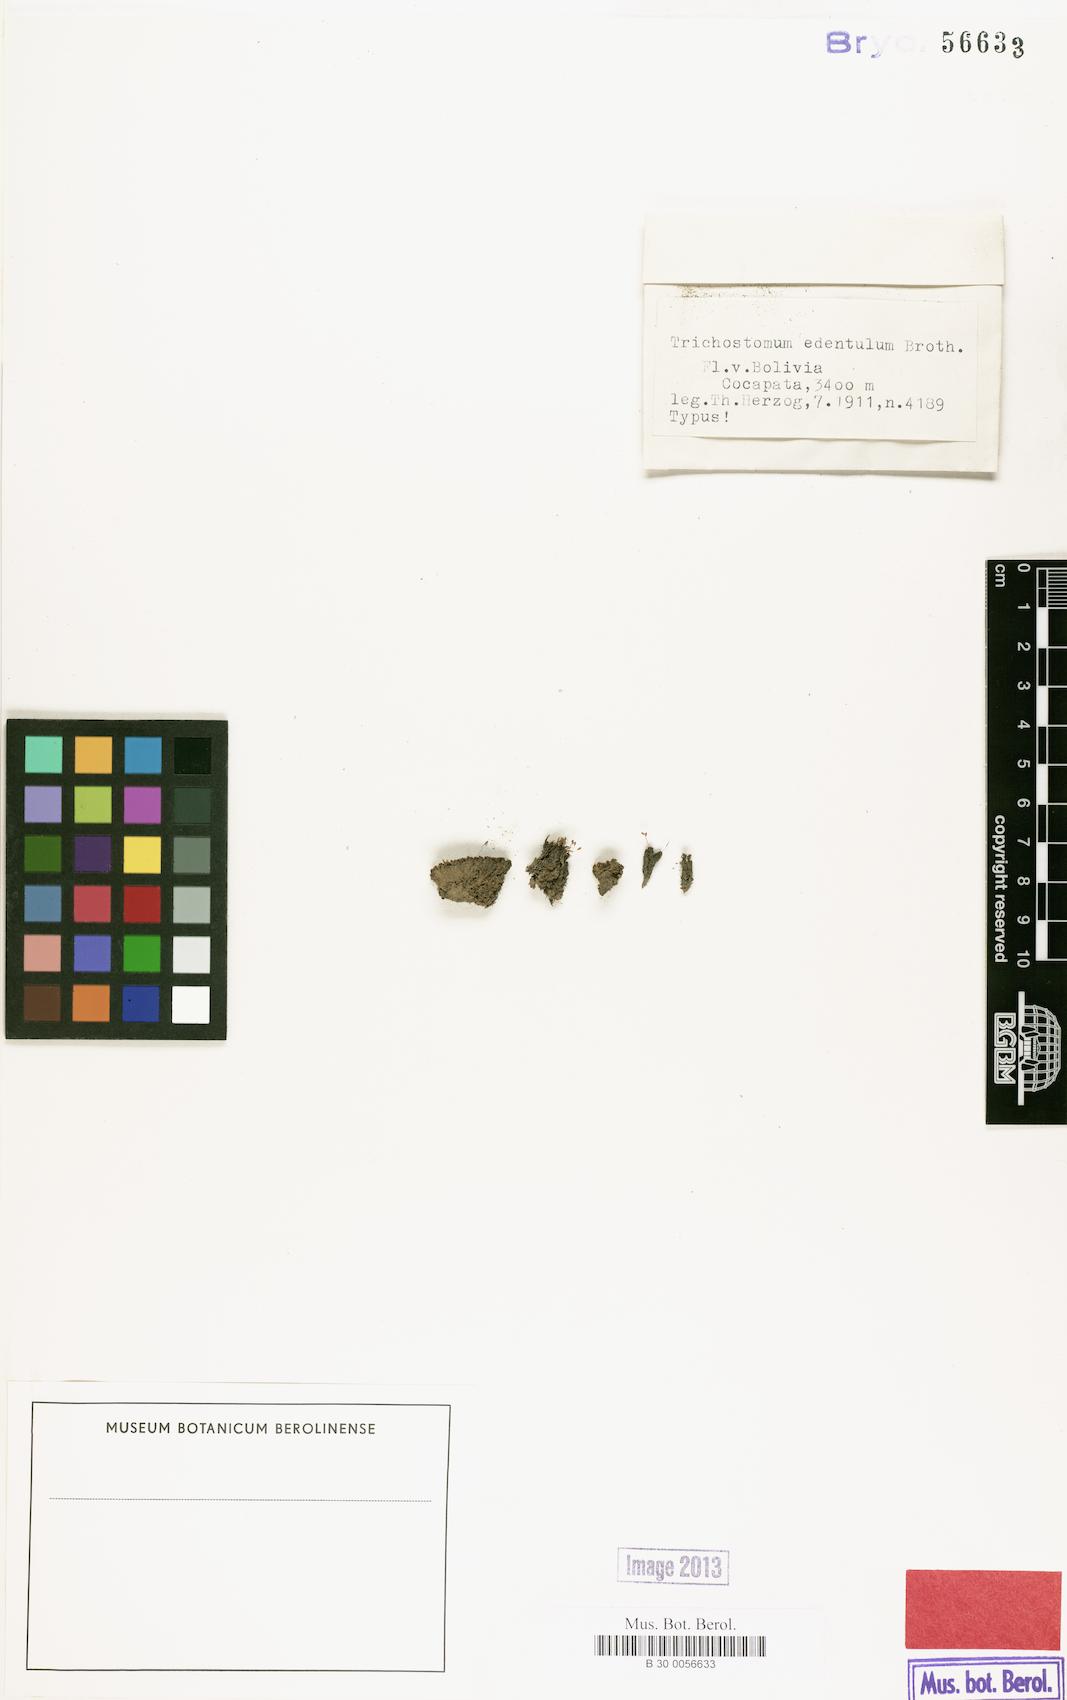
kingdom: Plantae
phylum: Bryophyta
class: Bryopsida
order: Pottiales
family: Pottiaceae
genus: Trichostomum
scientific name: Trichostomum edentulum
